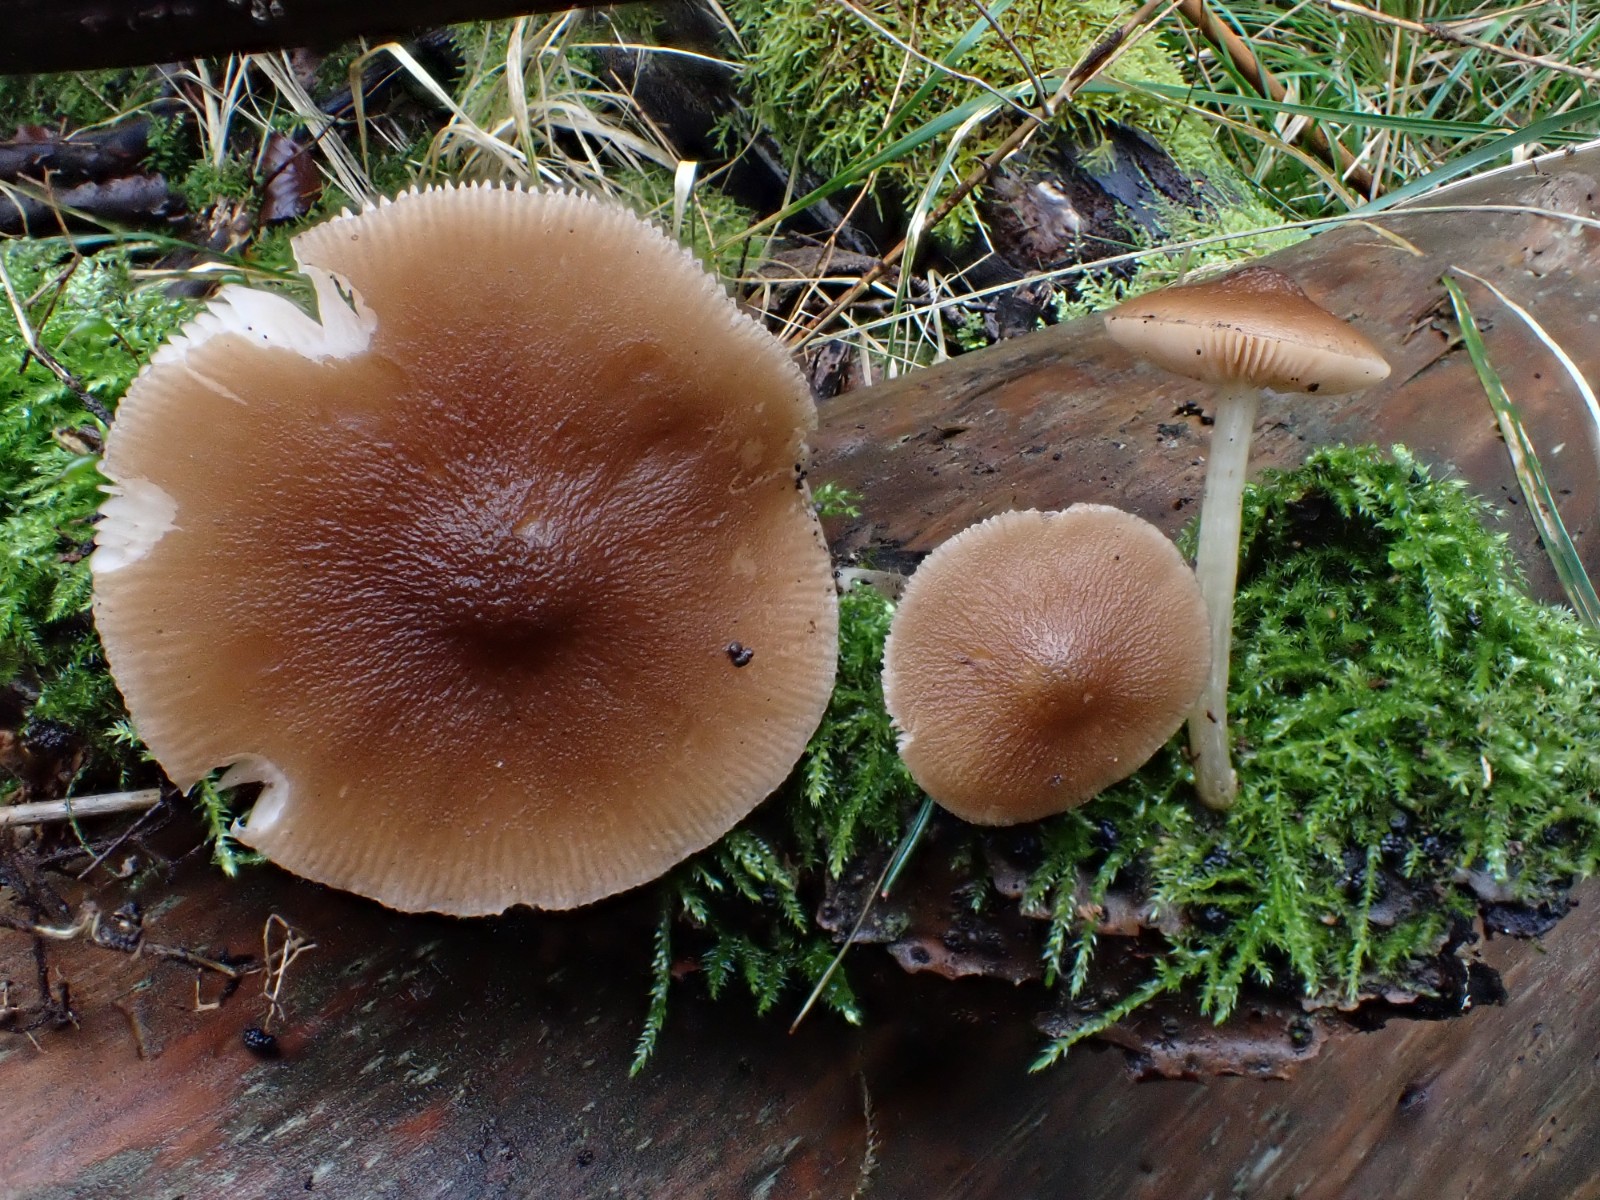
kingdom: Fungi
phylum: Basidiomycota
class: Agaricomycetes
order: Agaricales
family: Pluteaceae
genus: Pluteus
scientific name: Pluteus phlebophorus
